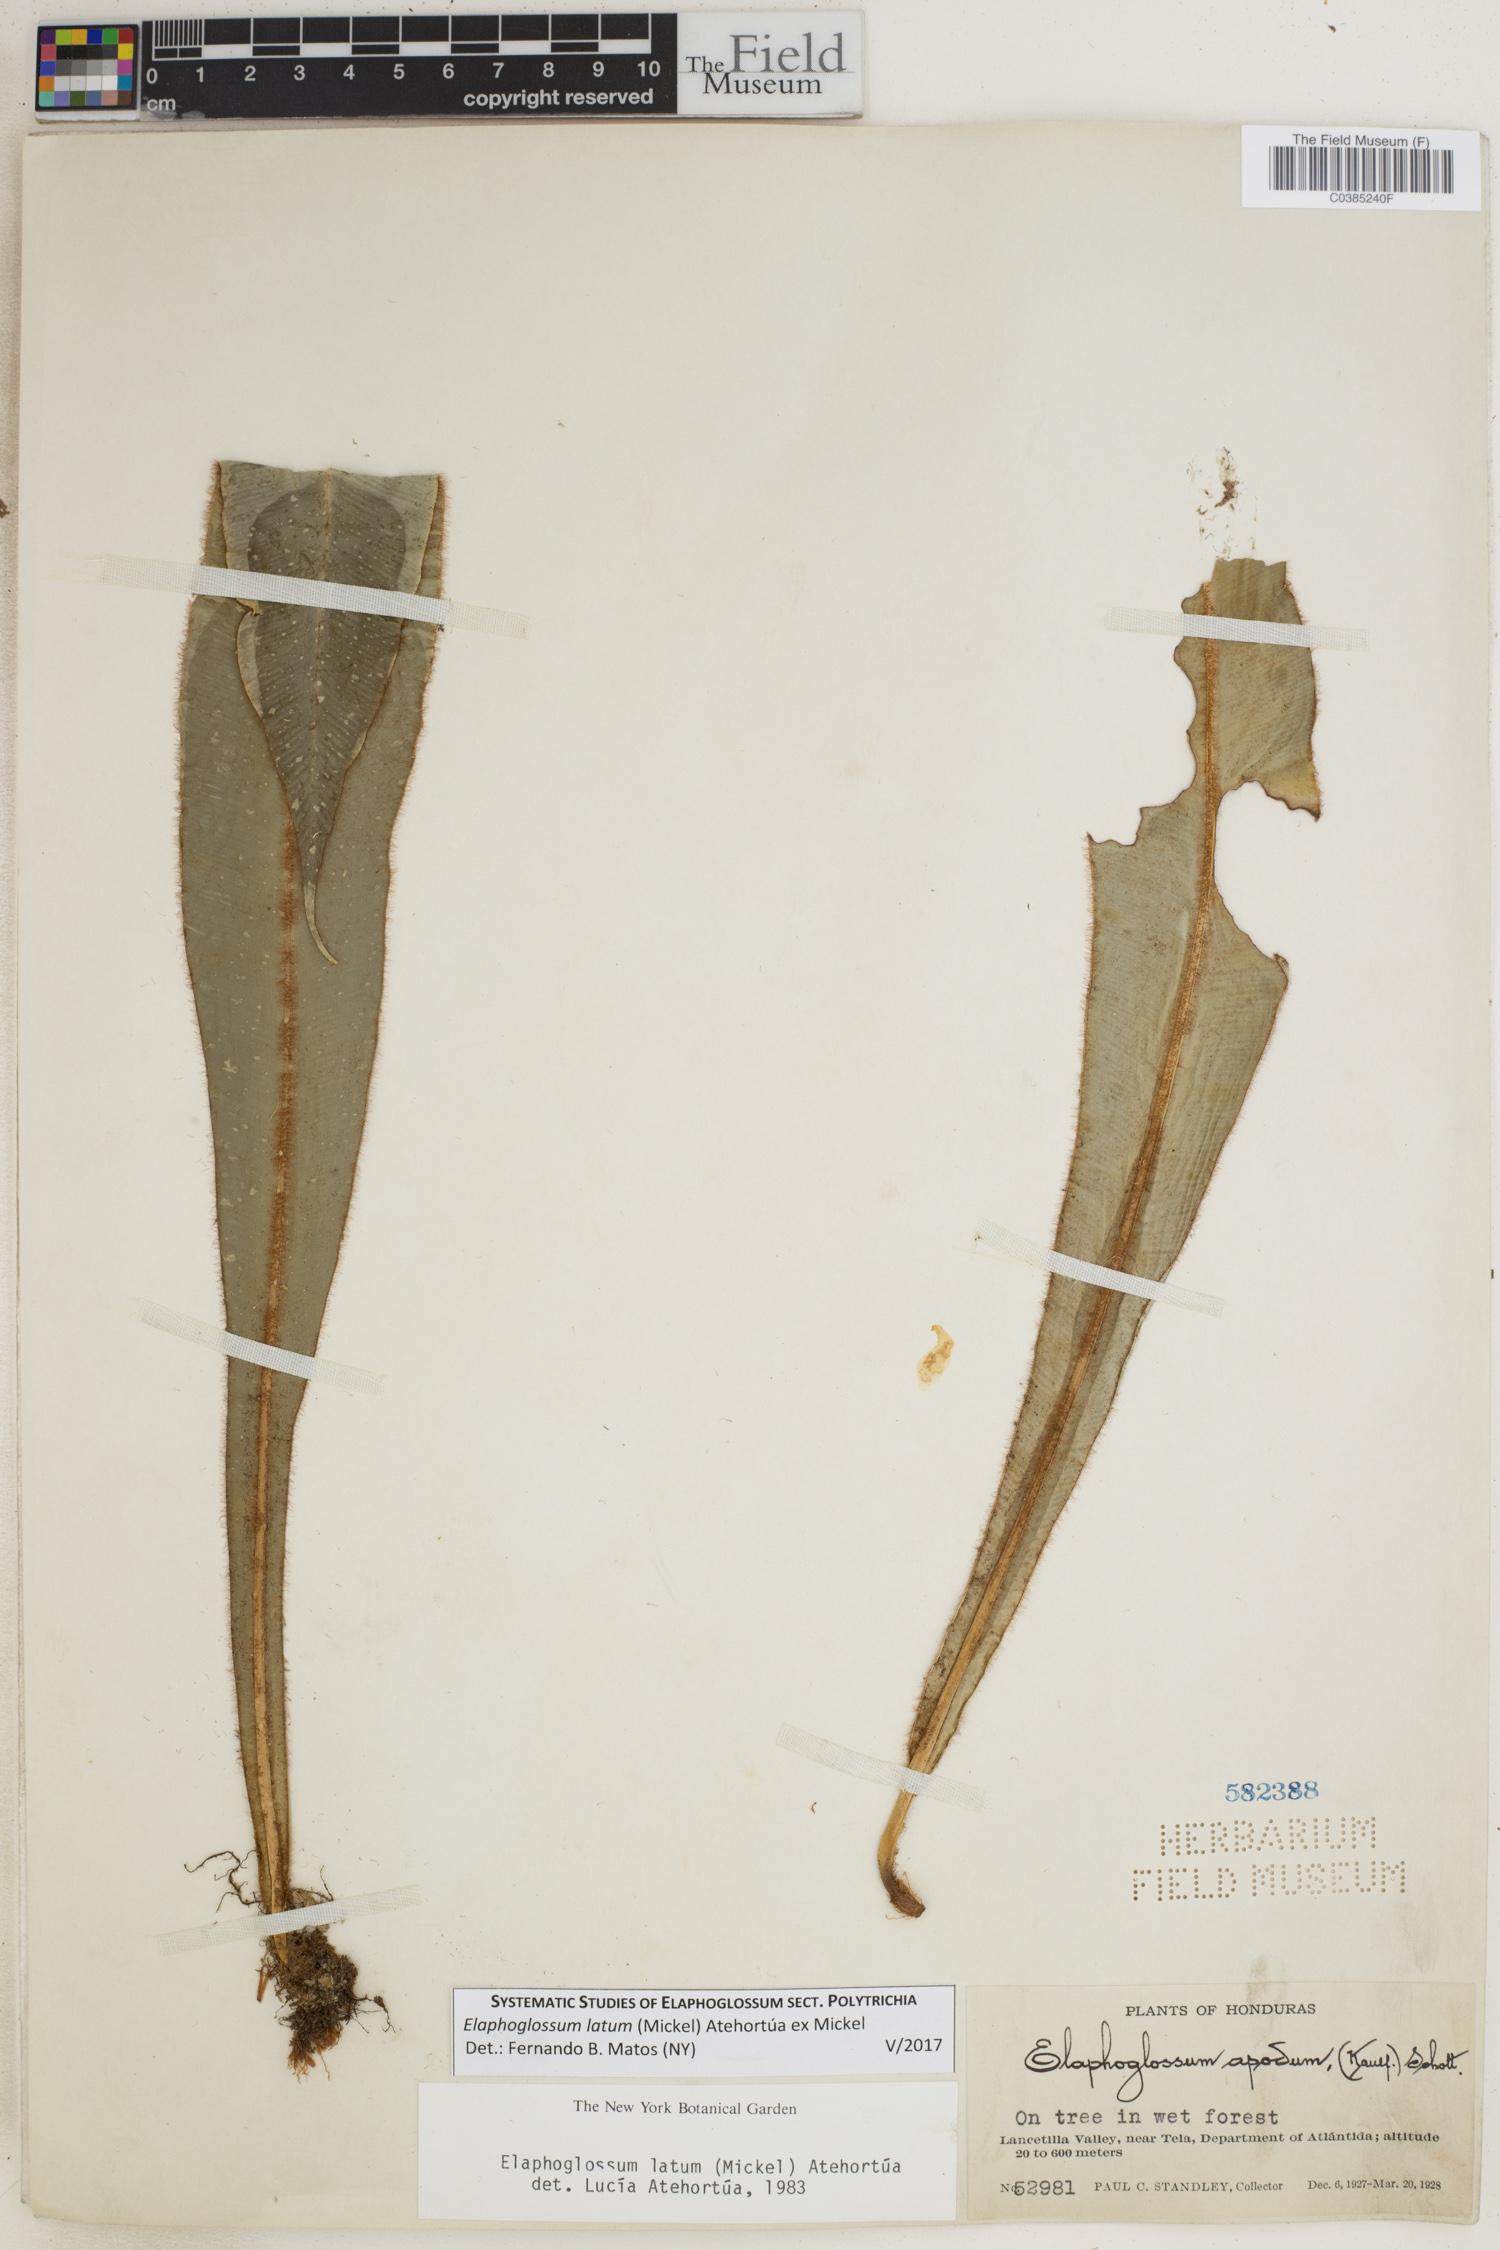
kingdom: Plantae
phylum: Tracheophyta
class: Polypodiopsida
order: Polypodiales
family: Dryopteridaceae
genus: Elaphoglossum
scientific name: Elaphoglossum latum
